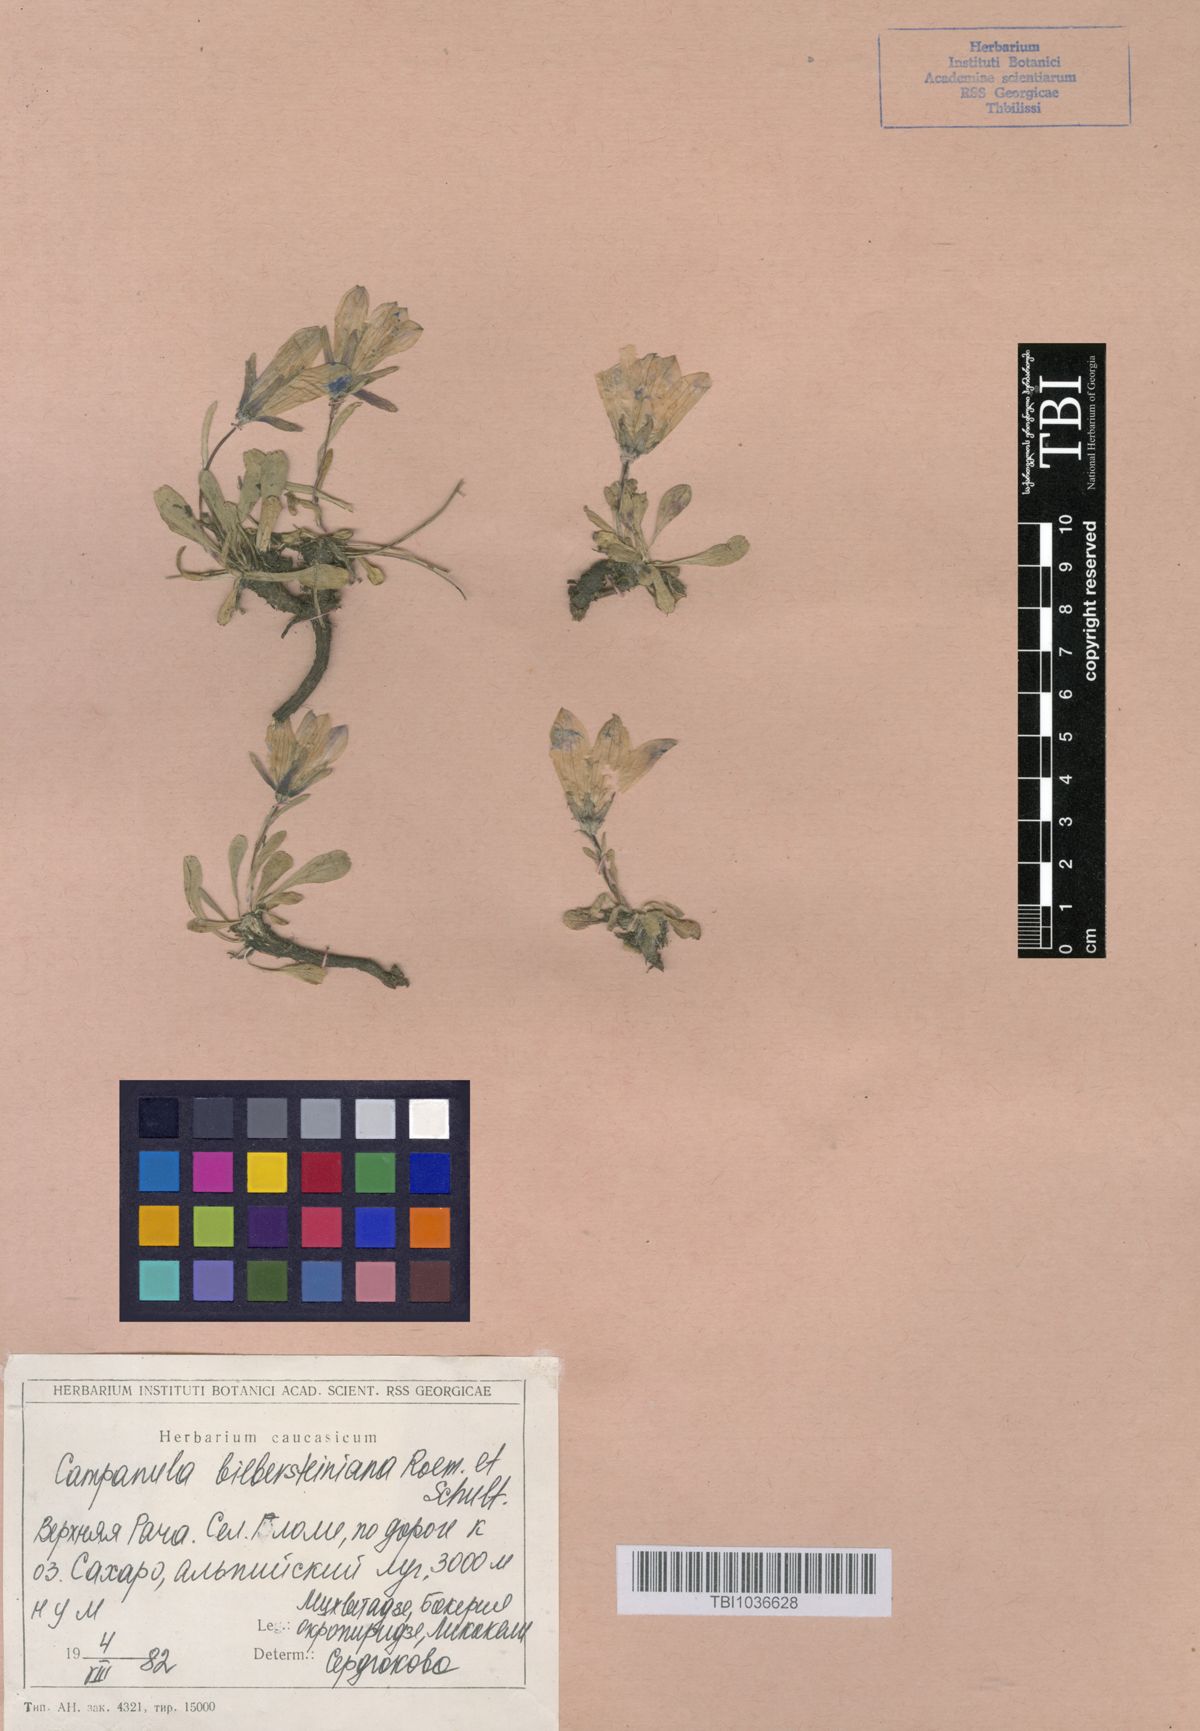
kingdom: Plantae
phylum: Tracheophyta
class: Magnoliopsida
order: Asterales
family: Campanulaceae
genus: Campanula
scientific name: Campanula tridentata
